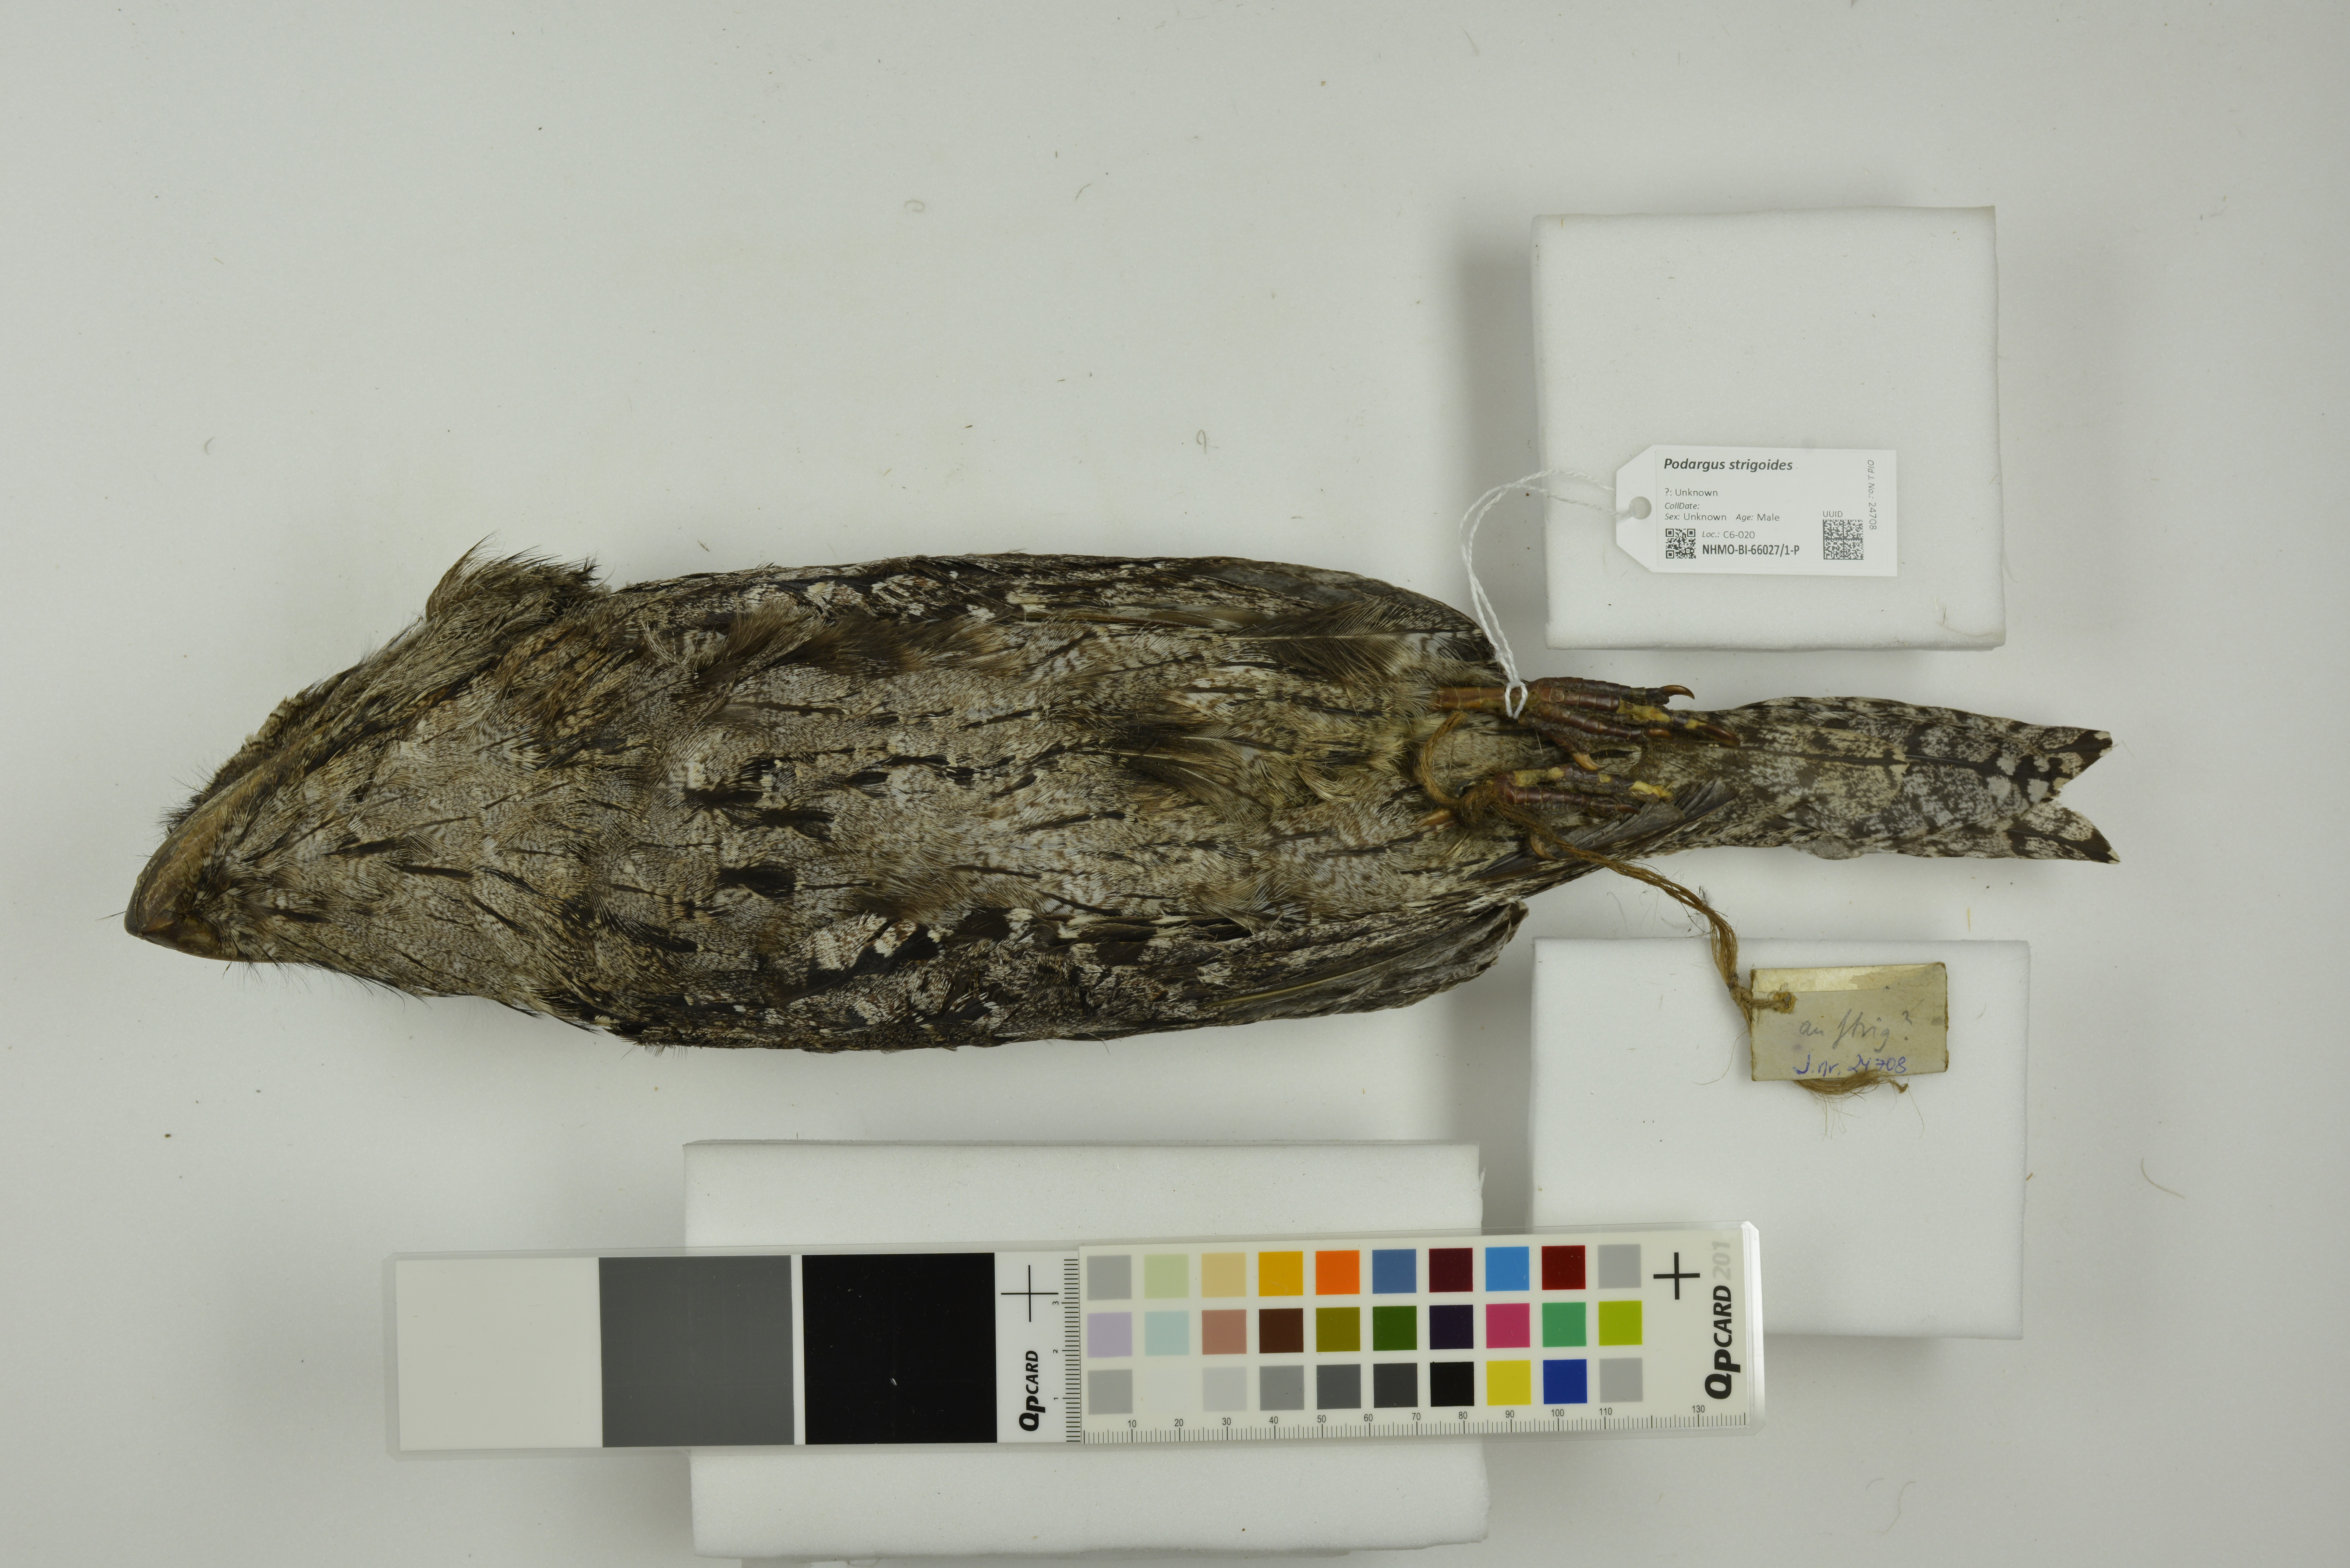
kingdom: Animalia
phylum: Chordata
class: Aves
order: Caprimulgiformes
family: Podargidae
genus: Podargus
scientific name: Podargus strigoides
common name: Tawny frogmouth
